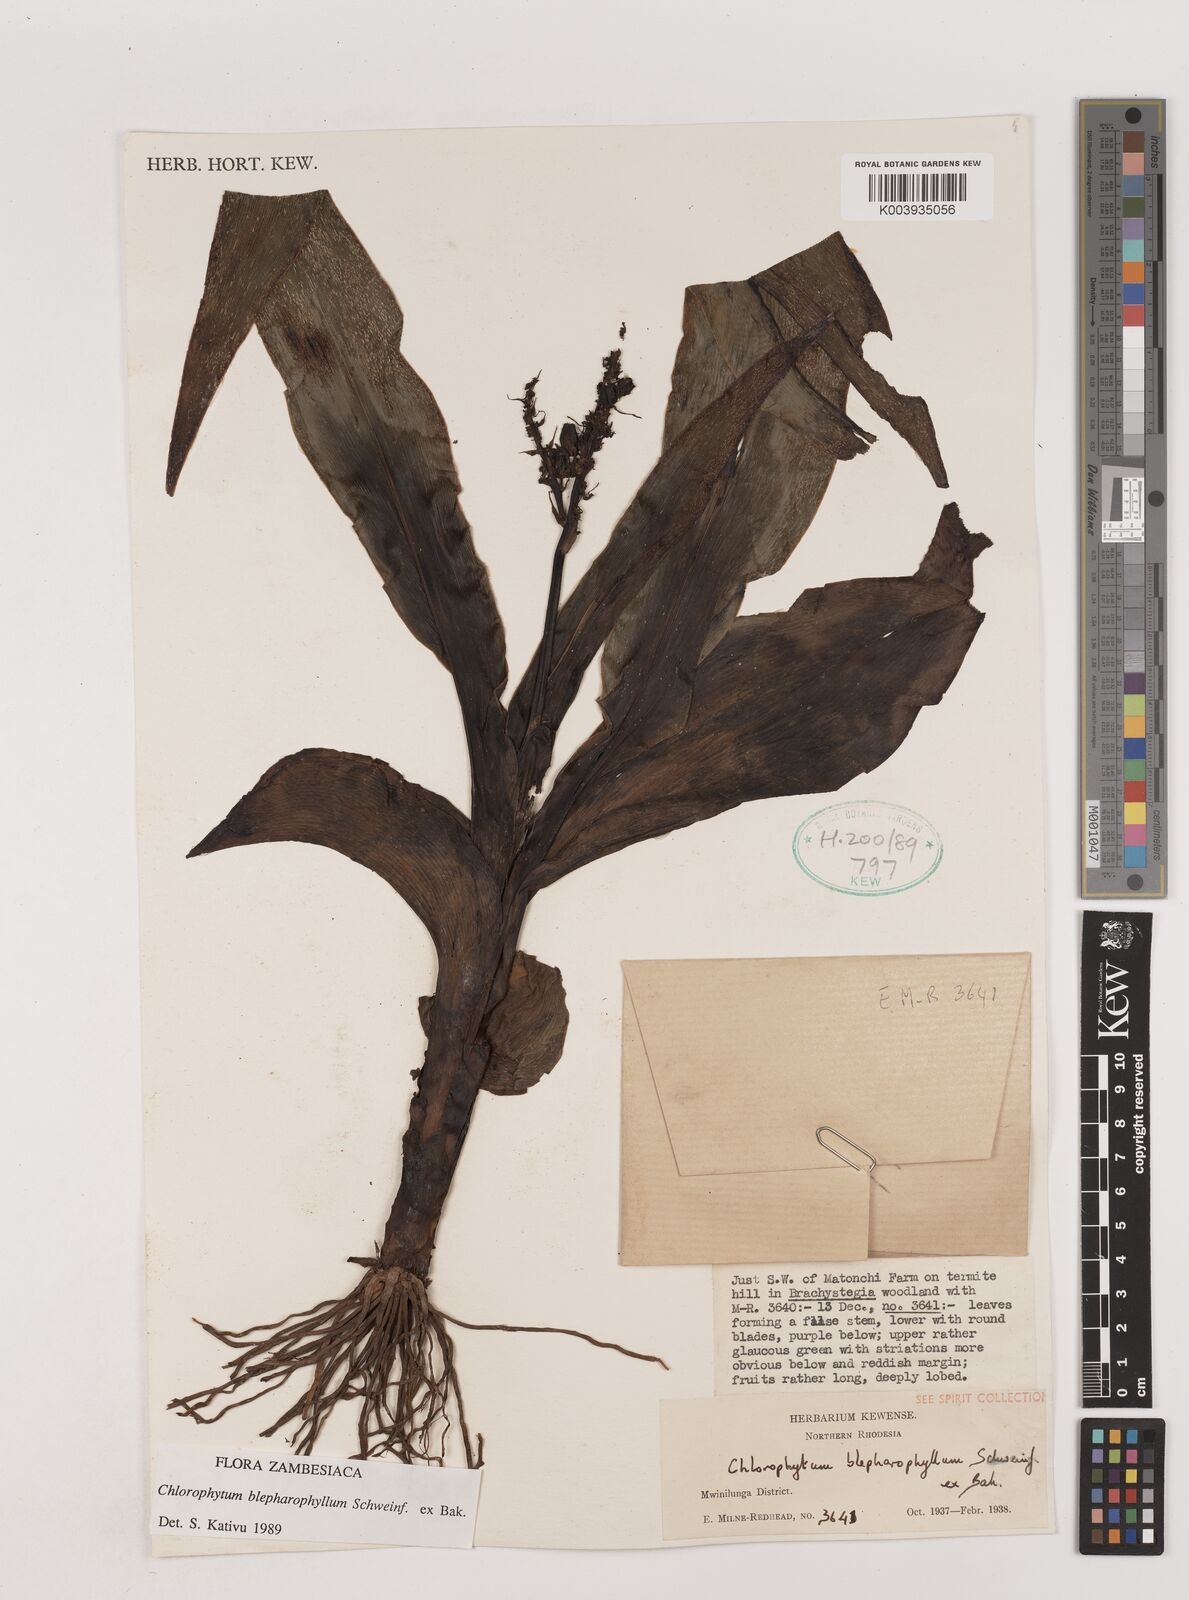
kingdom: Plantae
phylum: Tracheophyta
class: Liliopsida
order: Asparagales
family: Asparagaceae
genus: Chlorophytum
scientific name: Chlorophytum blepharophyllum
